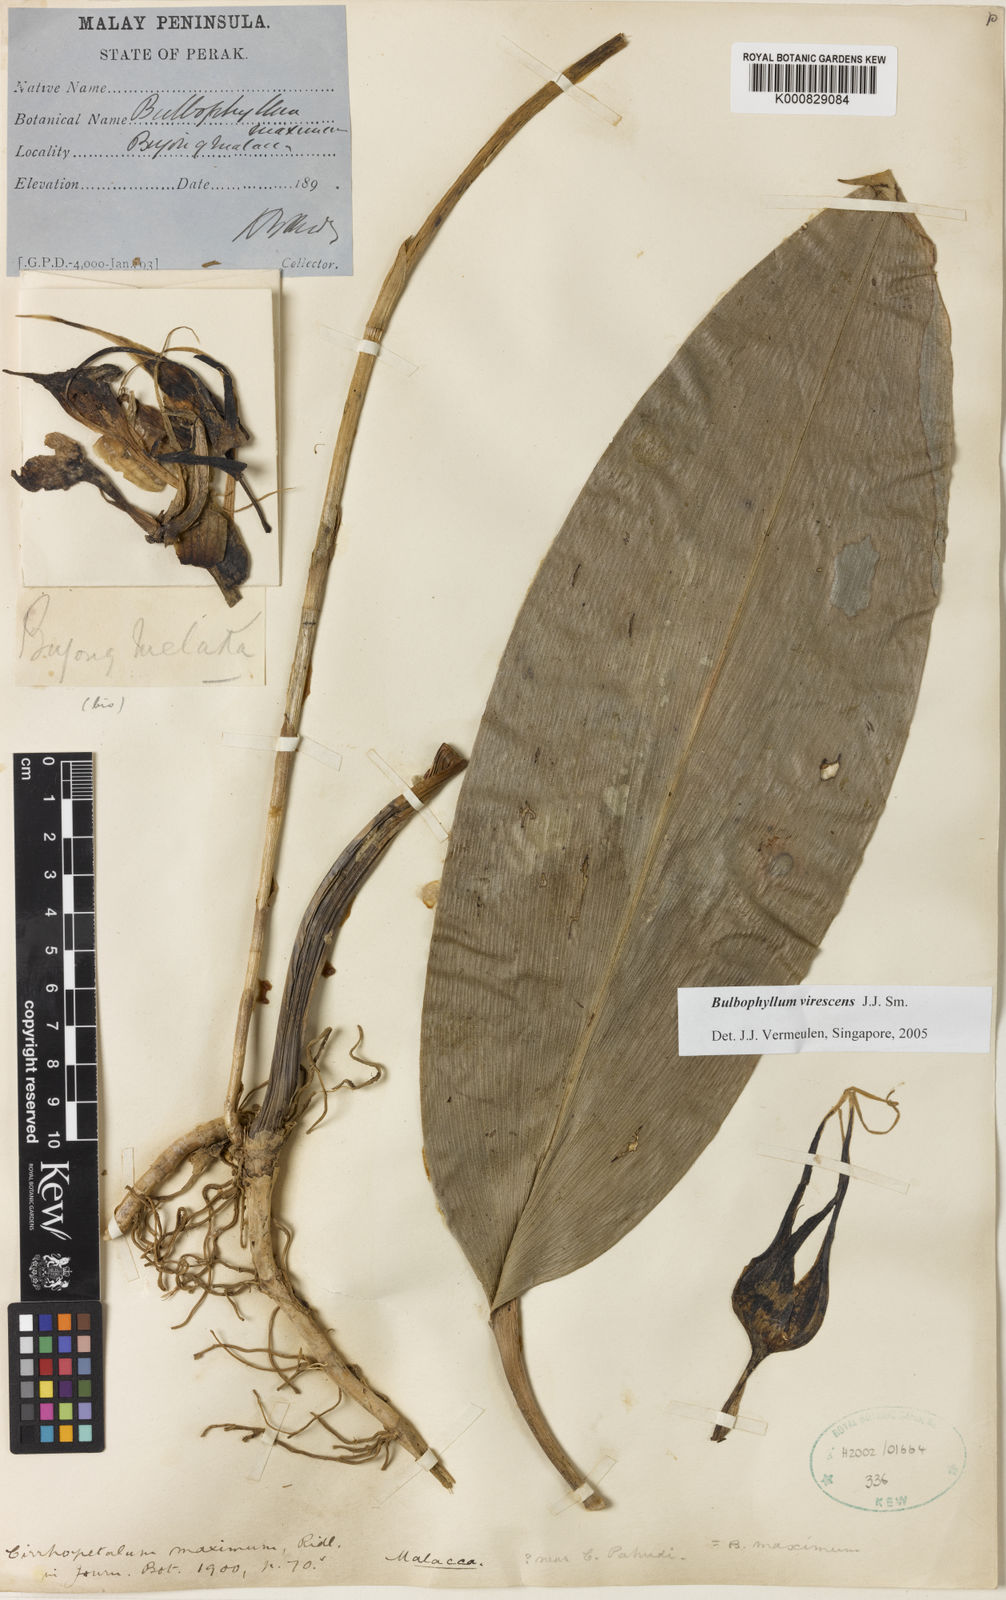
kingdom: Plantae
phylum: Tracheophyta
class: Liliopsida
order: Asparagales
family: Orchidaceae
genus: Bulbophyllum
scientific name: Bulbophyllum ericssonii
